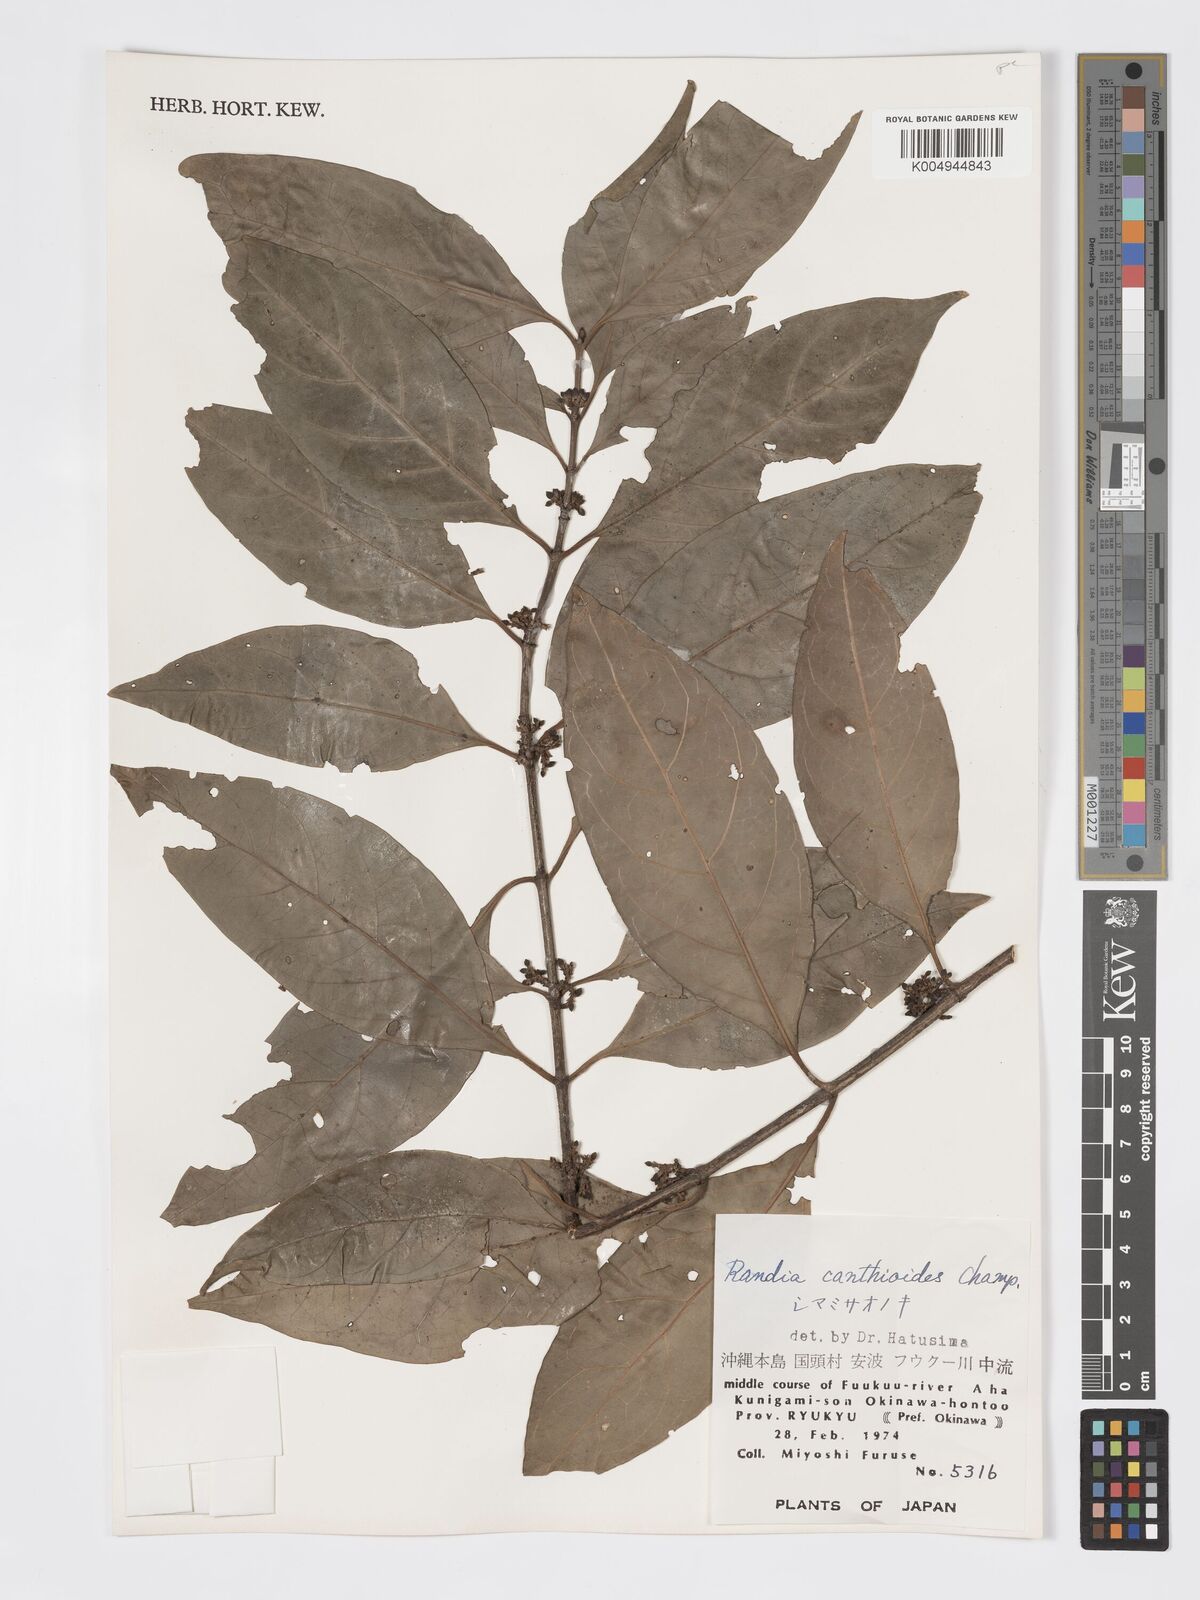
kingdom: Plantae
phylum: Tracheophyta
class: Magnoliopsida
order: Gentianales
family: Rubiaceae
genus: Aidia
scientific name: Aidia canthioides
